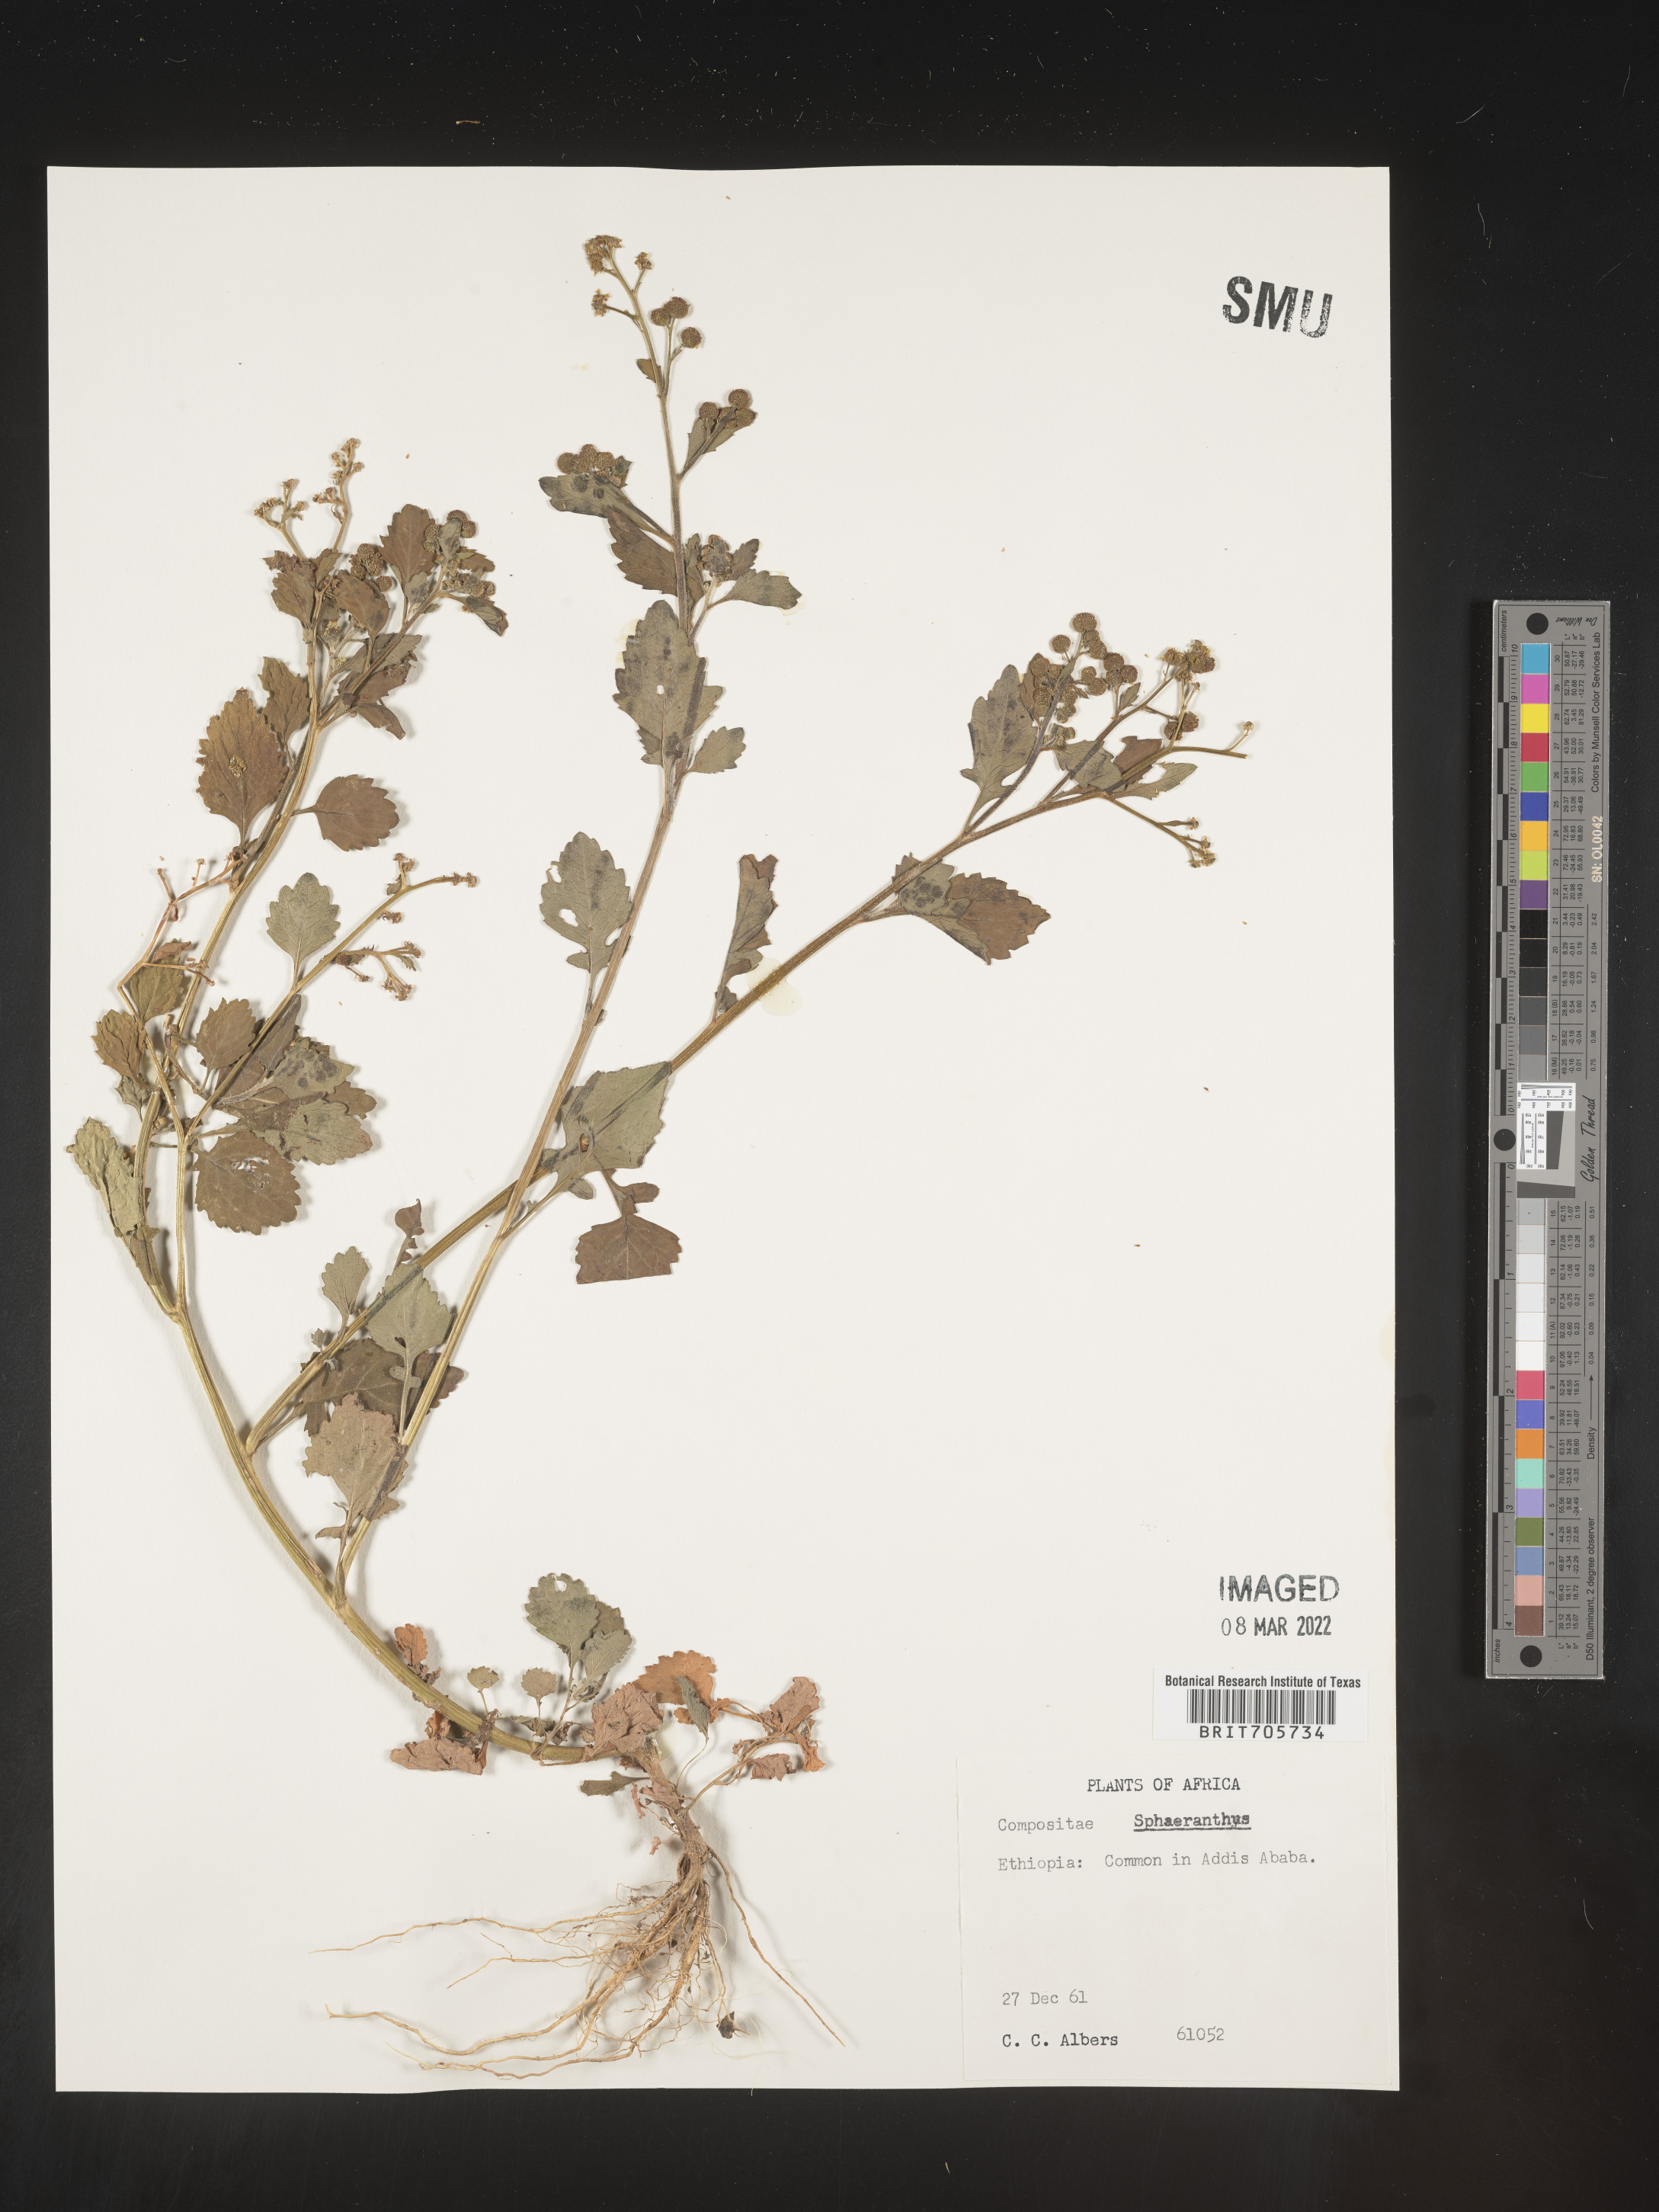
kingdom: Plantae
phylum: Tracheophyta
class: Magnoliopsida
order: Asterales
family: Asteraceae
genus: Sphaeranthus
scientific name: Sphaeranthus
